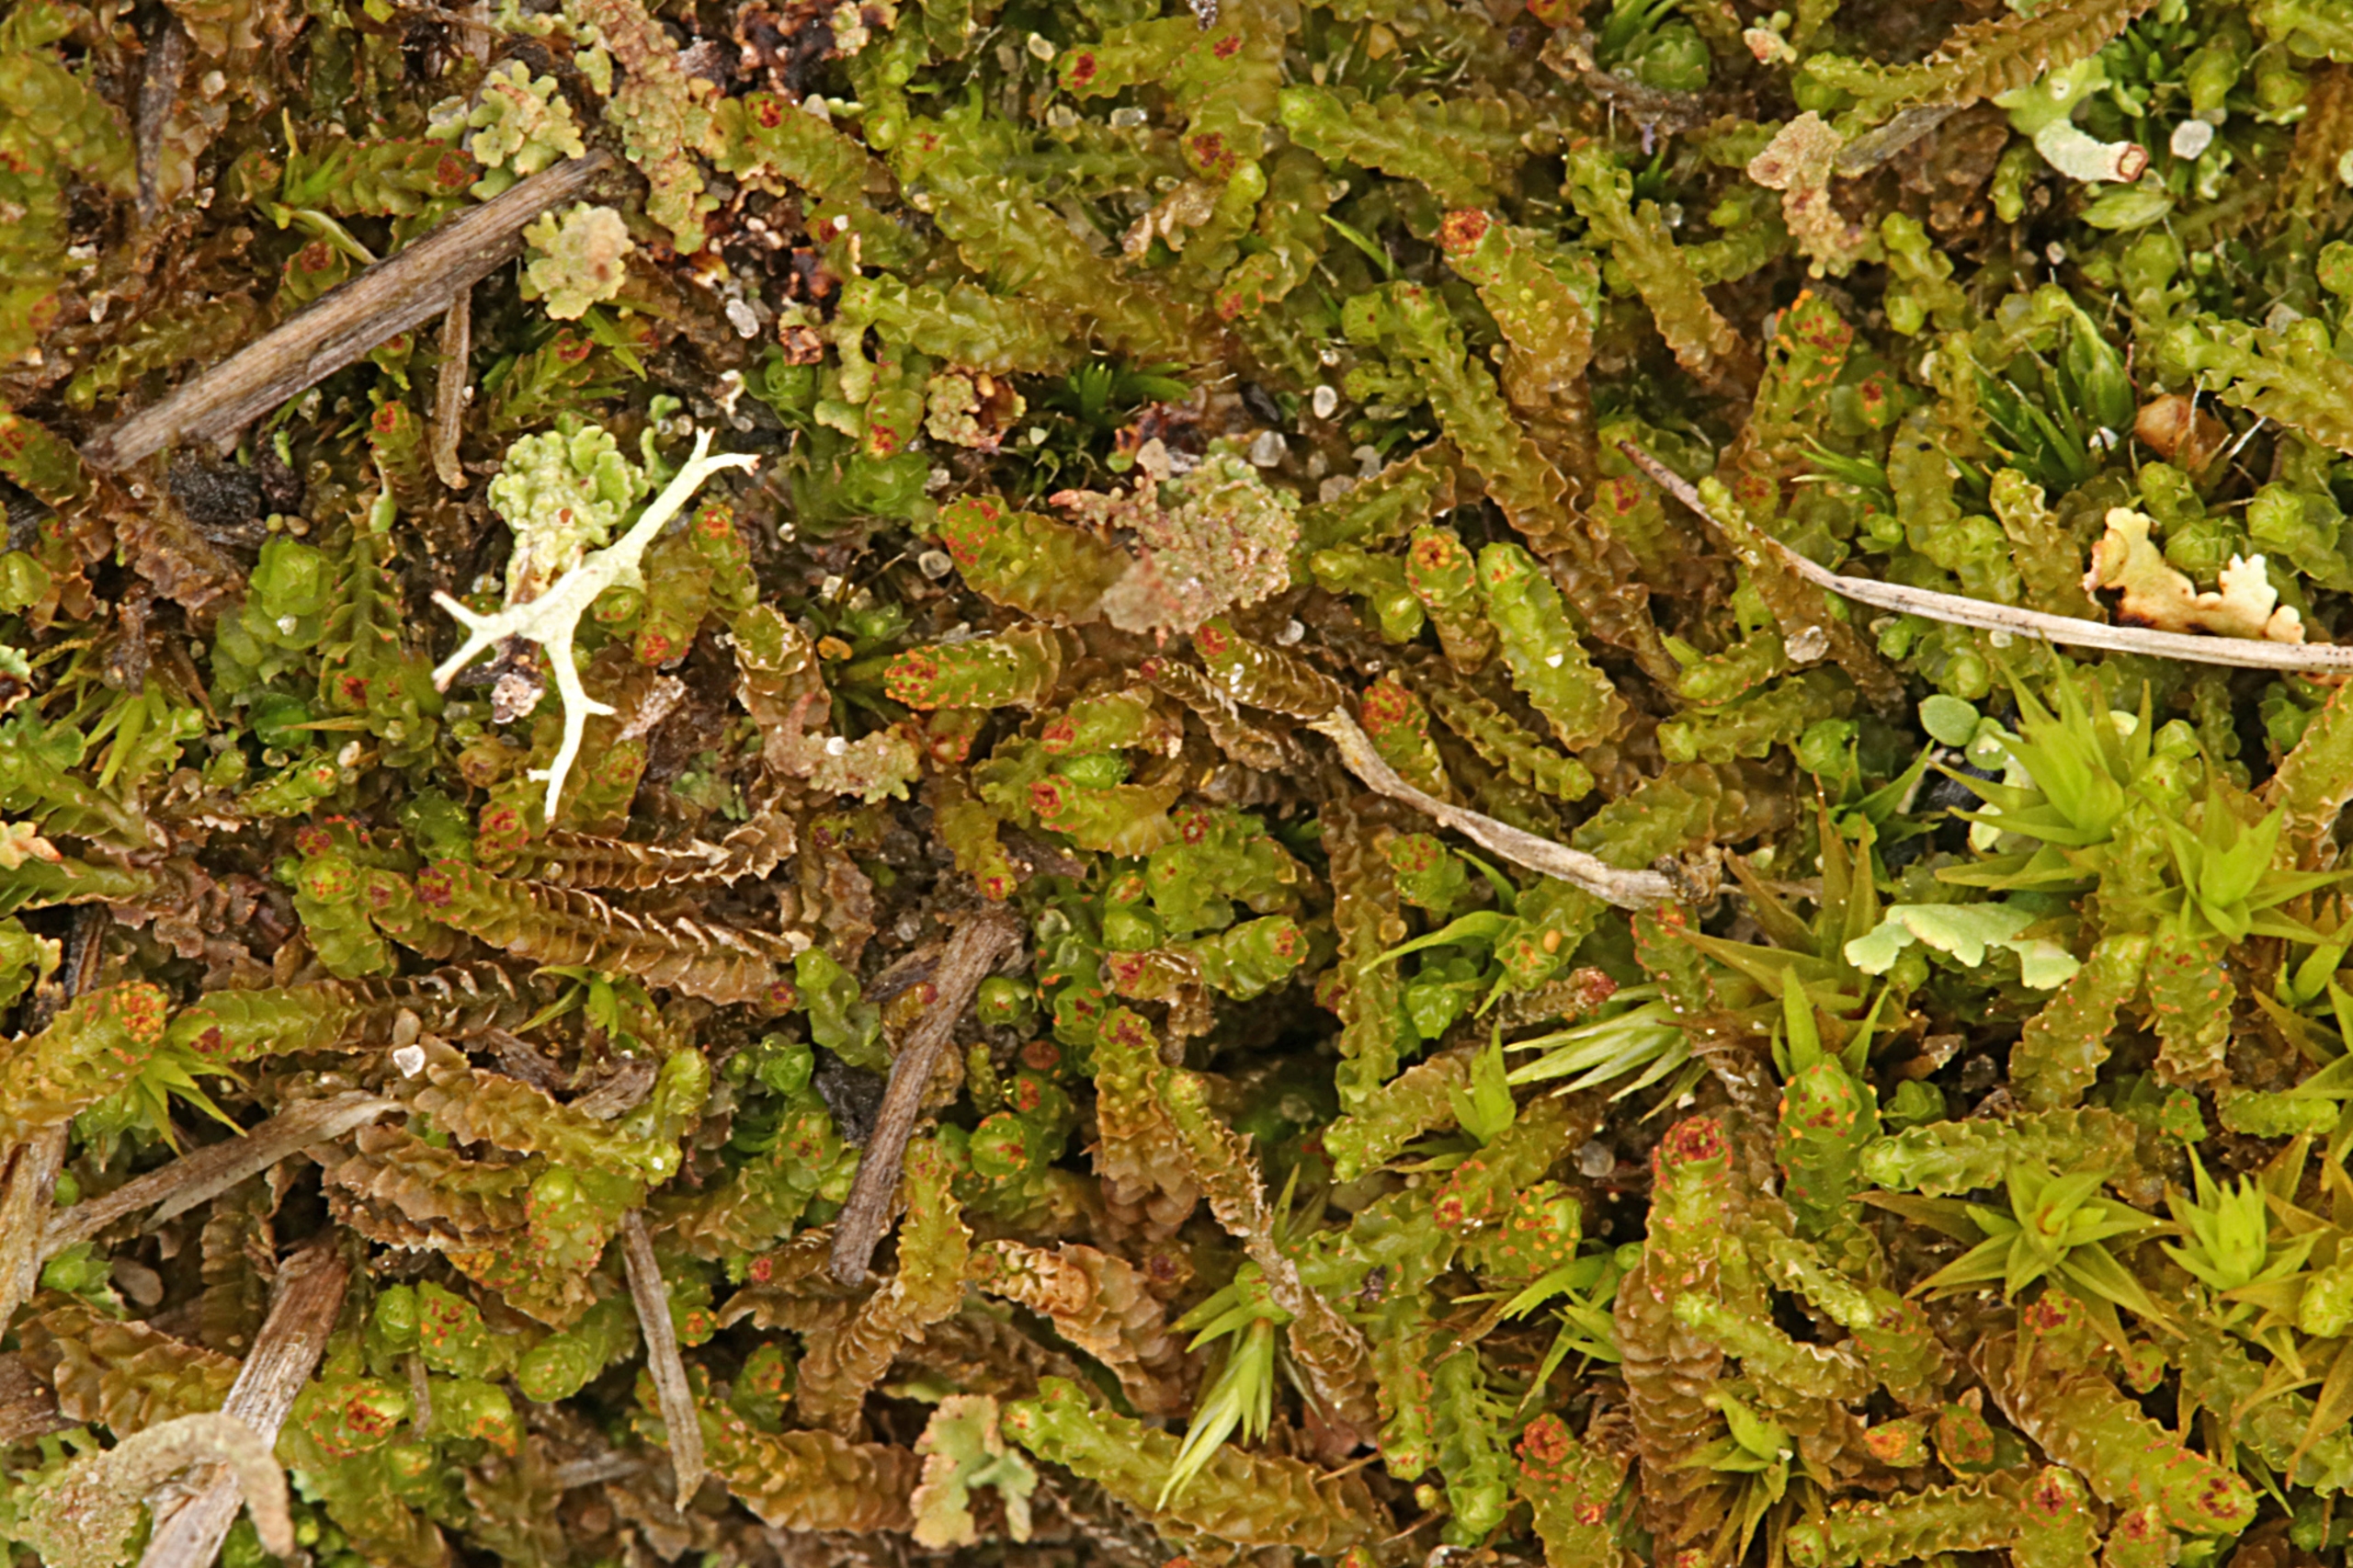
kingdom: Plantae
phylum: Marchantiophyta
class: Jungermanniopsida
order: Jungermanniales
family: Anastrophyllaceae
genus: Barbilophozia
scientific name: Barbilophozia hatcheri
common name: Spidsfliget flerfligmos
